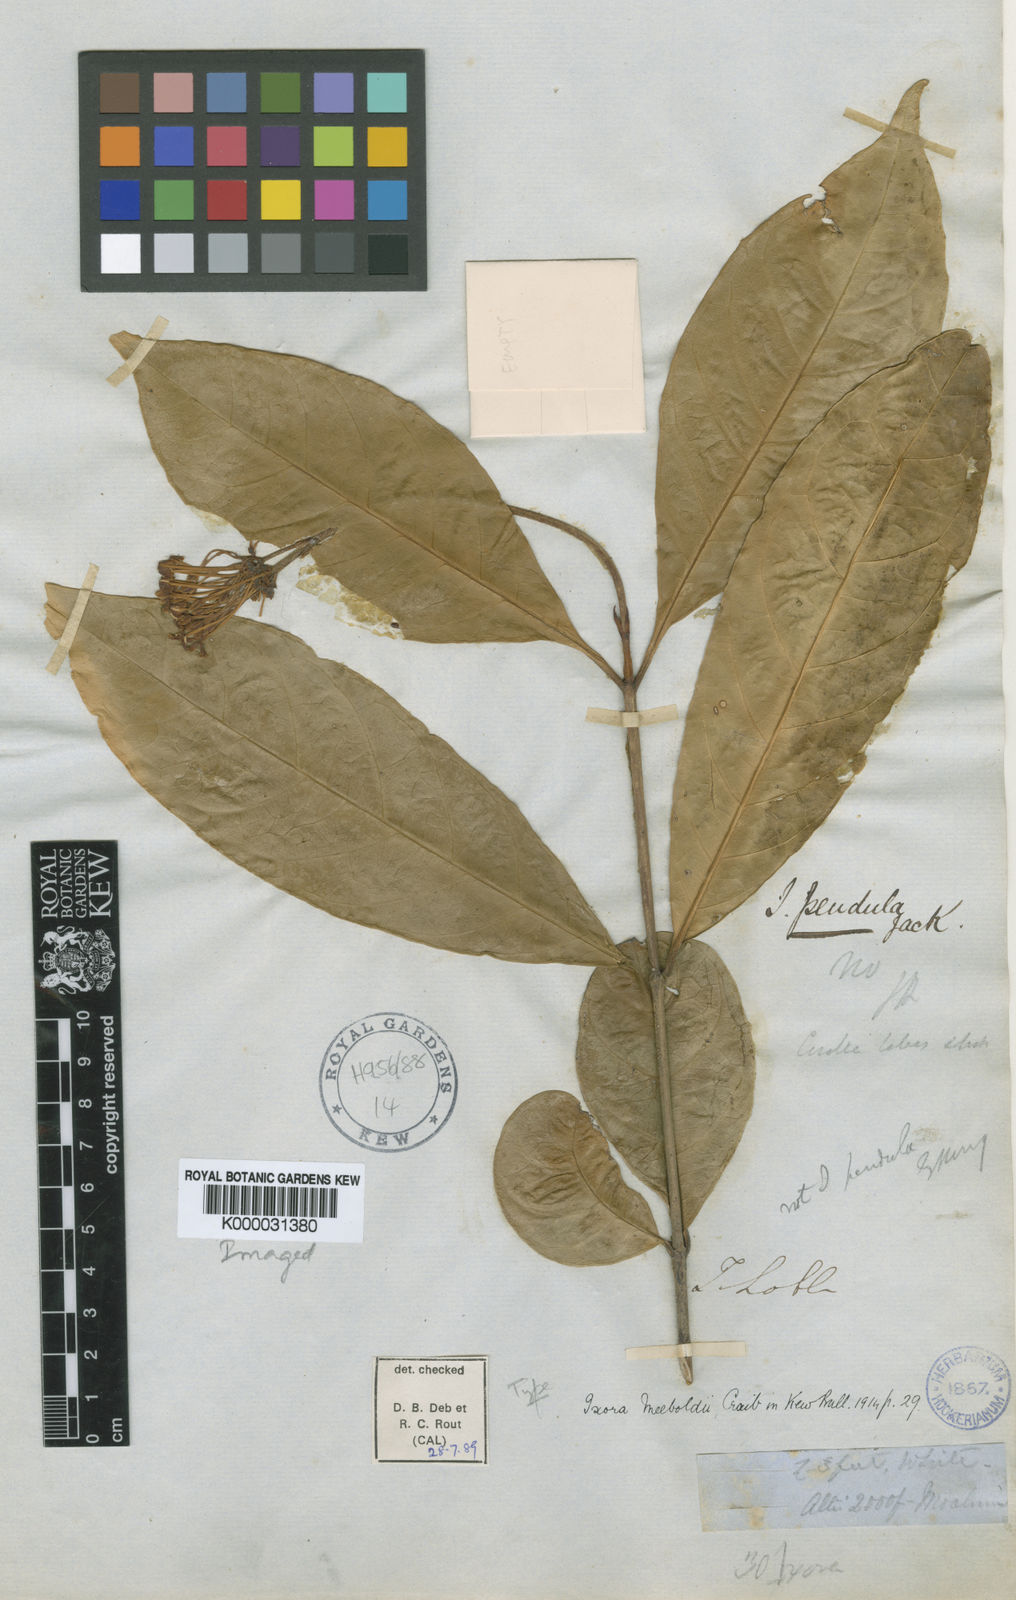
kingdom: Plantae
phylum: Tracheophyta
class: Magnoliopsida
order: Gentianales
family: Rubiaceae
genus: Ixora
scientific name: Ixora meeboldii
